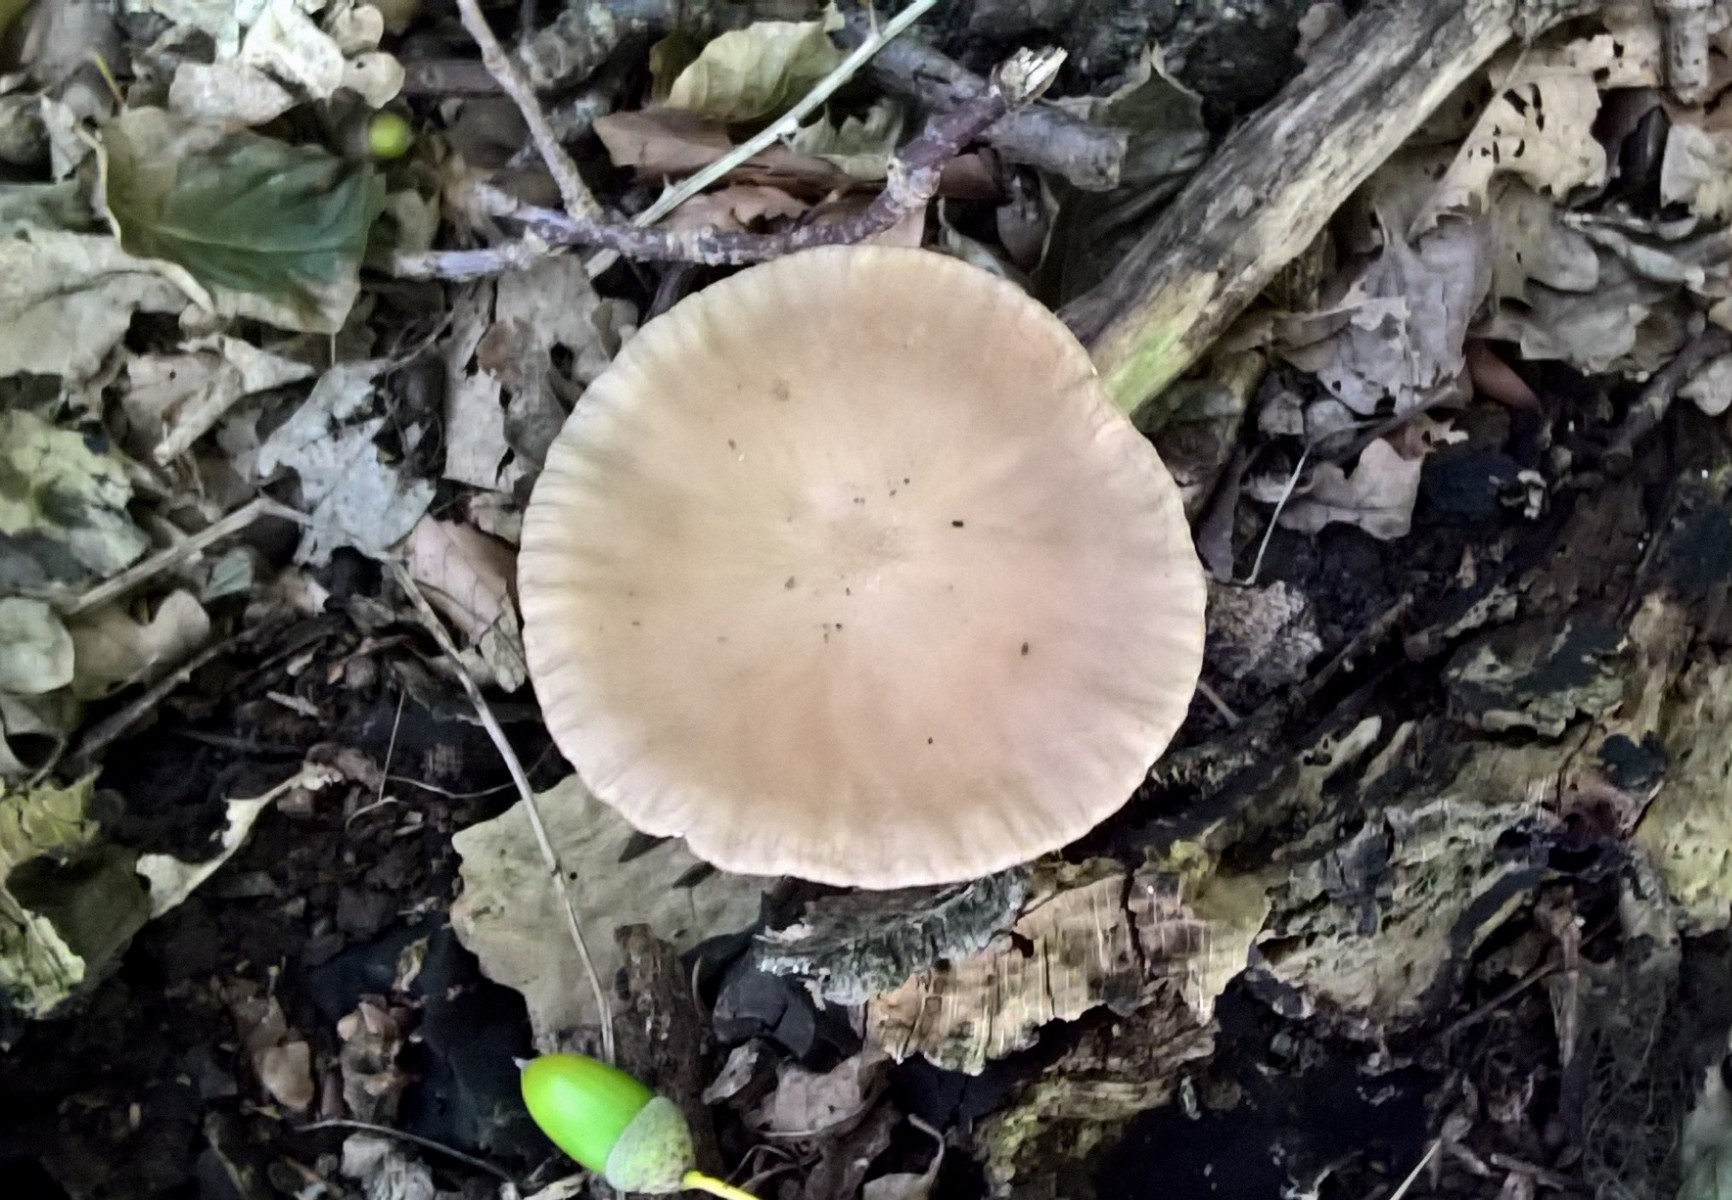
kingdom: Fungi
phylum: Basidiomycota
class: Agaricomycetes
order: Agaricales
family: Physalacriaceae
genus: Hymenopellis
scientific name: Hymenopellis radicata
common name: almindelig pælerodshat
